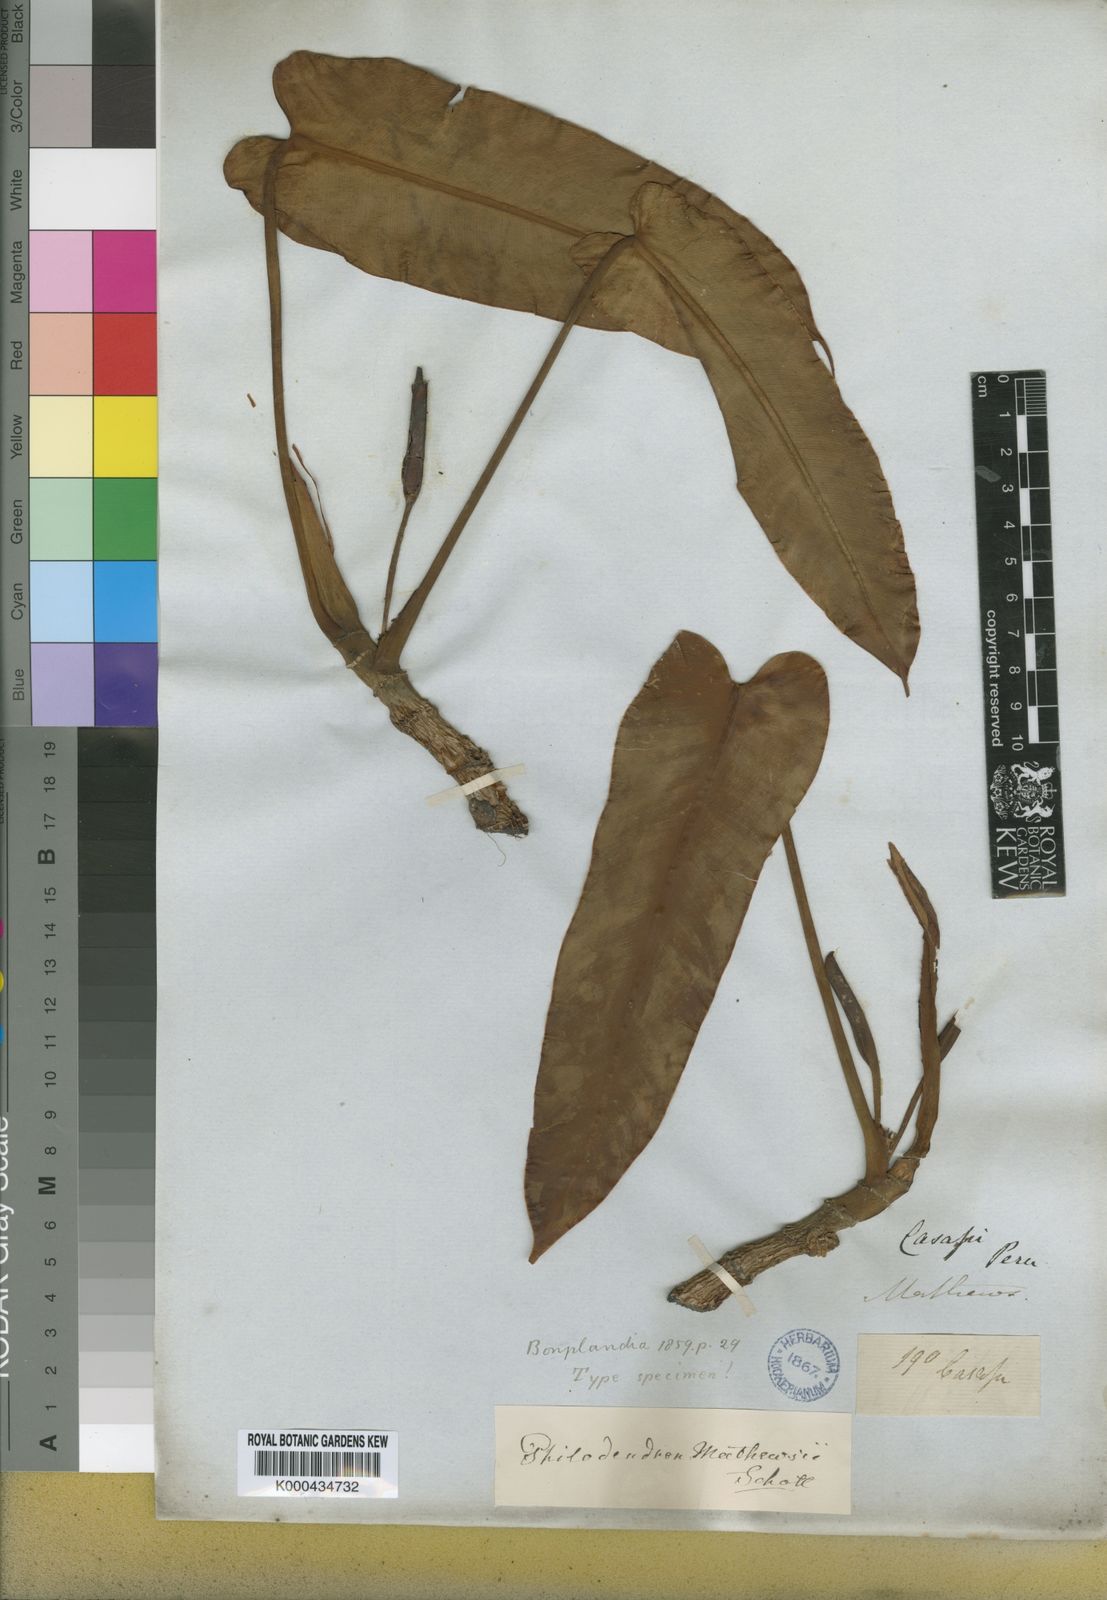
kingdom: Plantae
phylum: Tracheophyta
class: Liliopsida
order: Alismatales
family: Araceae
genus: Philodendron
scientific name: Philodendron mathewsii
